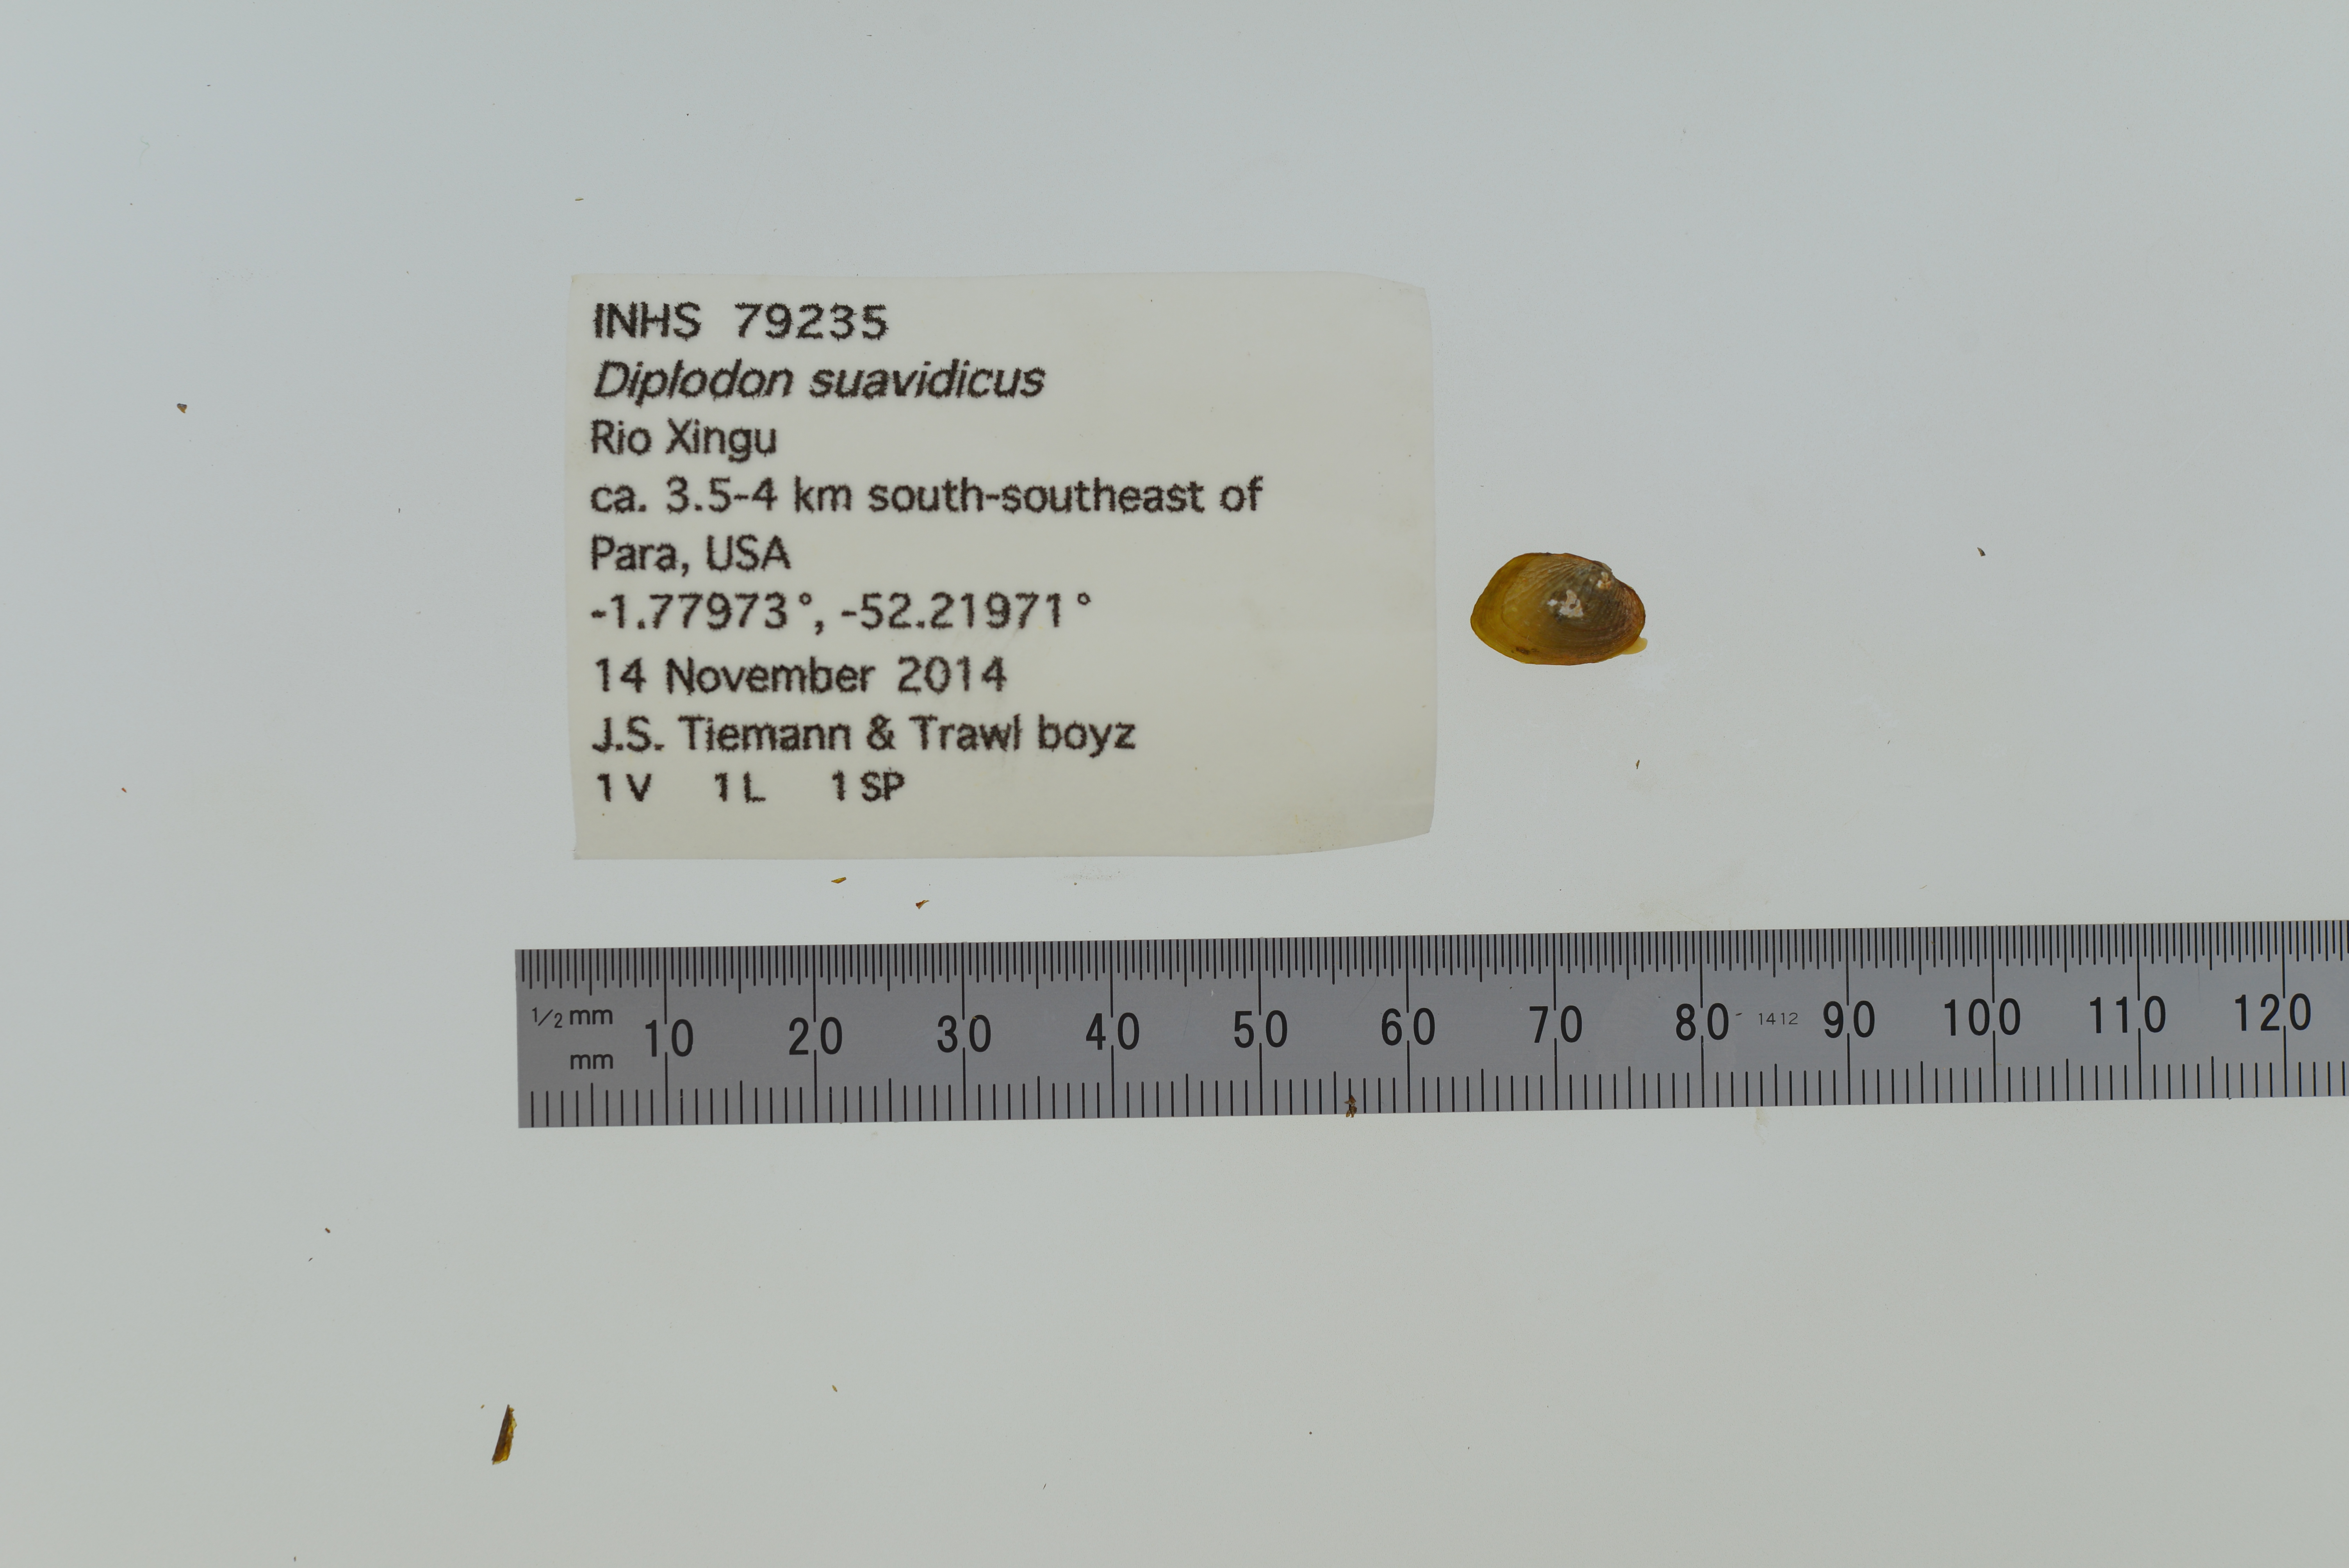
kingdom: Animalia
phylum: Mollusca
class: Bivalvia
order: Unionida
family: Hyriidae
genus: Diplodon
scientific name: Diplodon suavidicus
